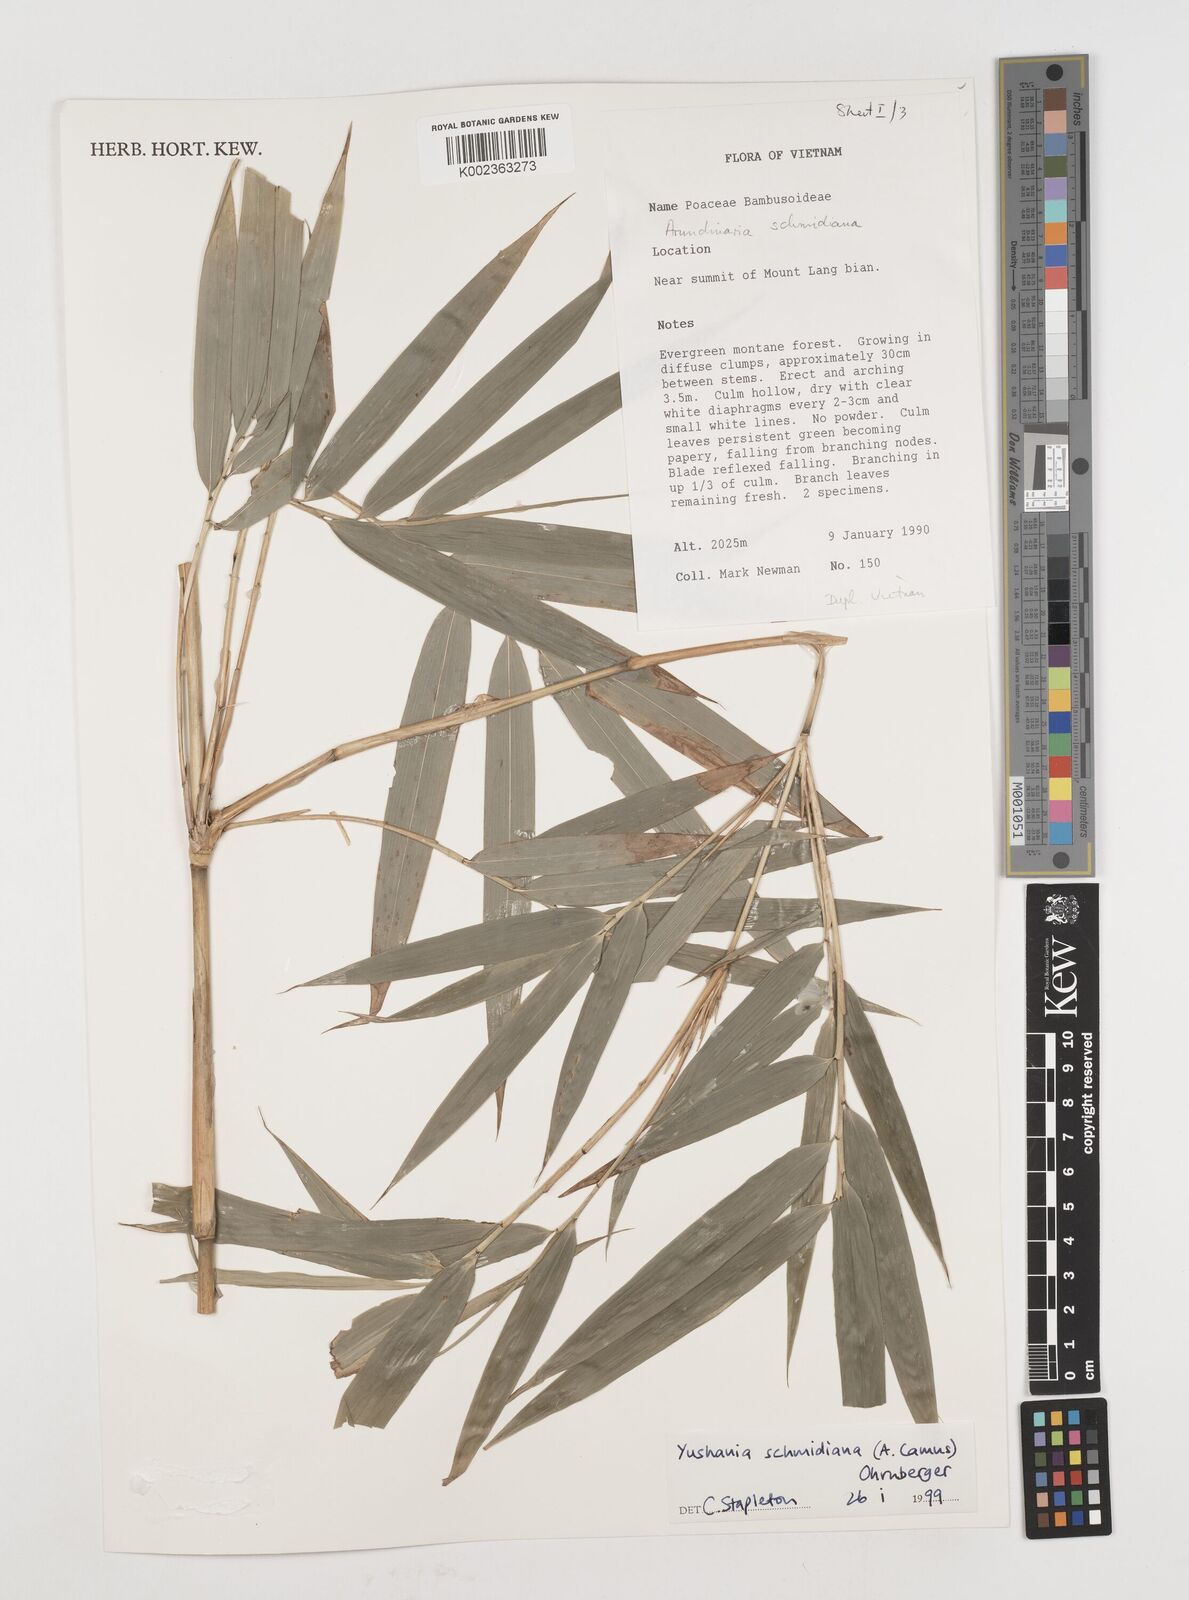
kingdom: Plantae
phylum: Tracheophyta
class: Liliopsida
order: Poales
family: Poaceae
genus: Fargesia
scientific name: Fargesia
